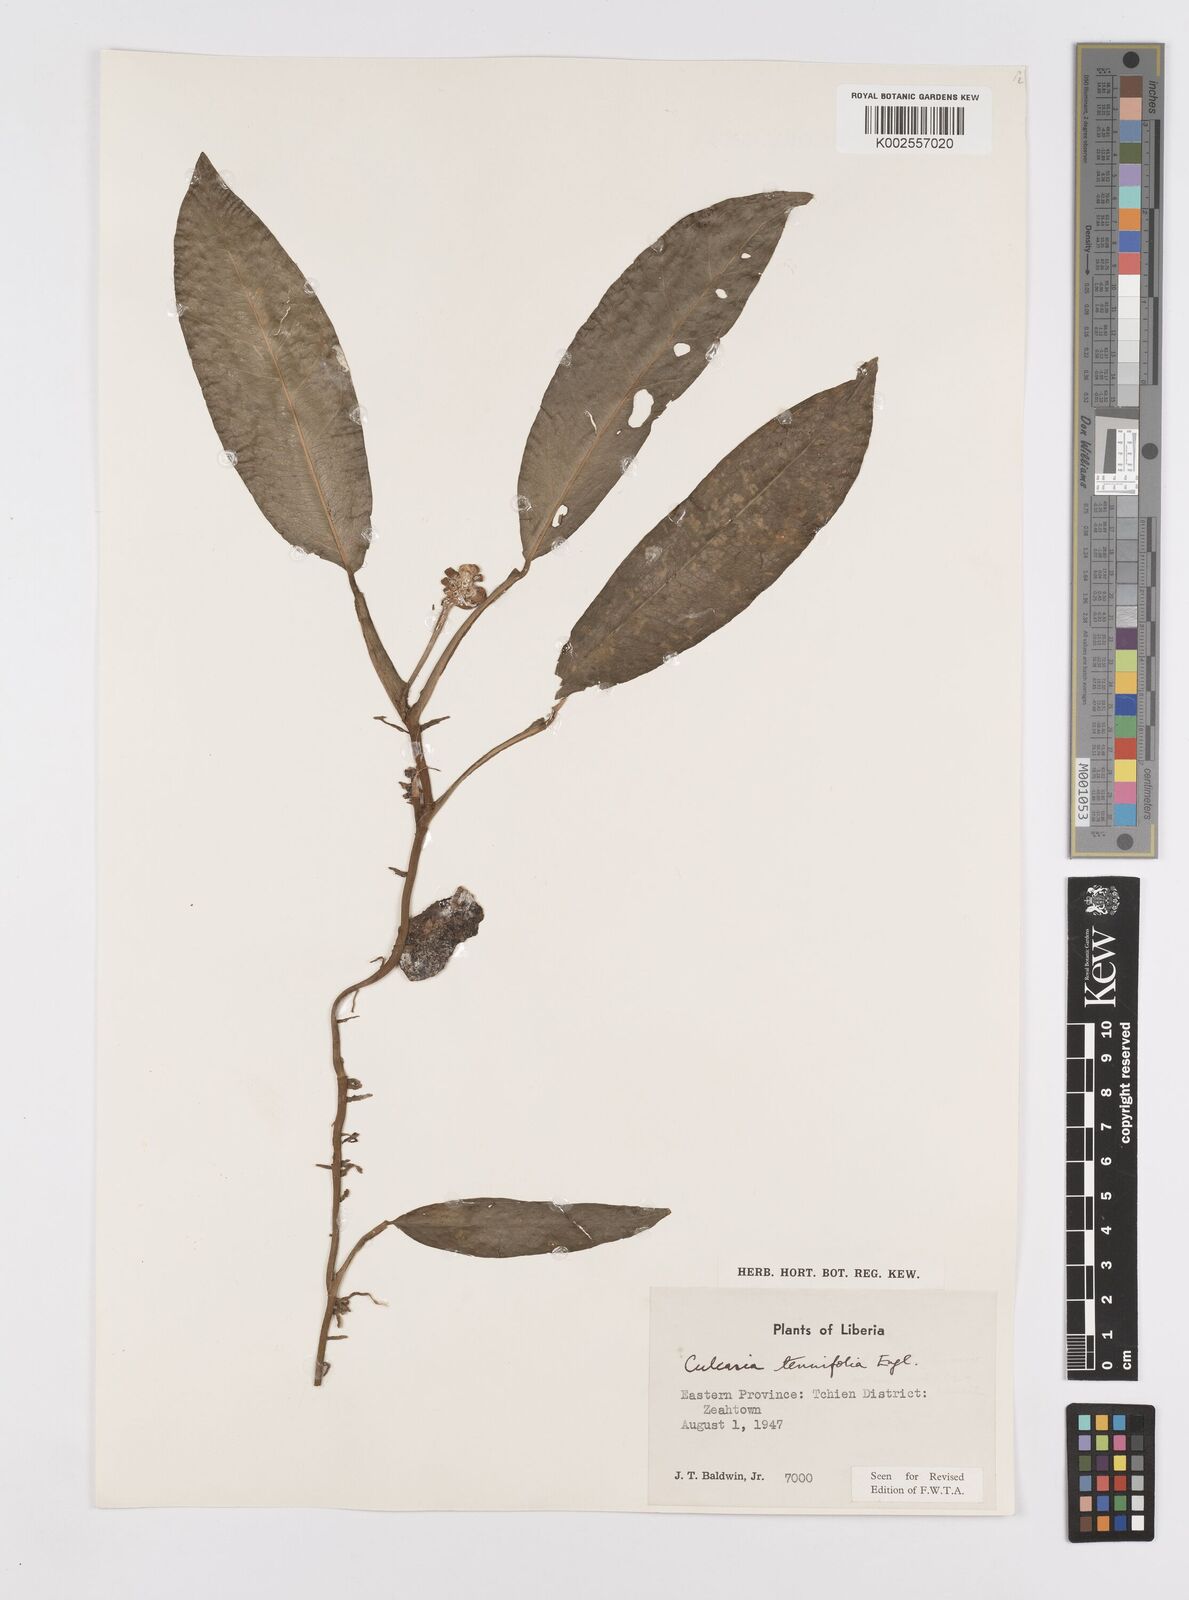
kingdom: Plantae
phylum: Tracheophyta
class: Liliopsida
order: Alismatales
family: Araceae
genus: Culcasia
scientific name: Culcasia tenuifolia
